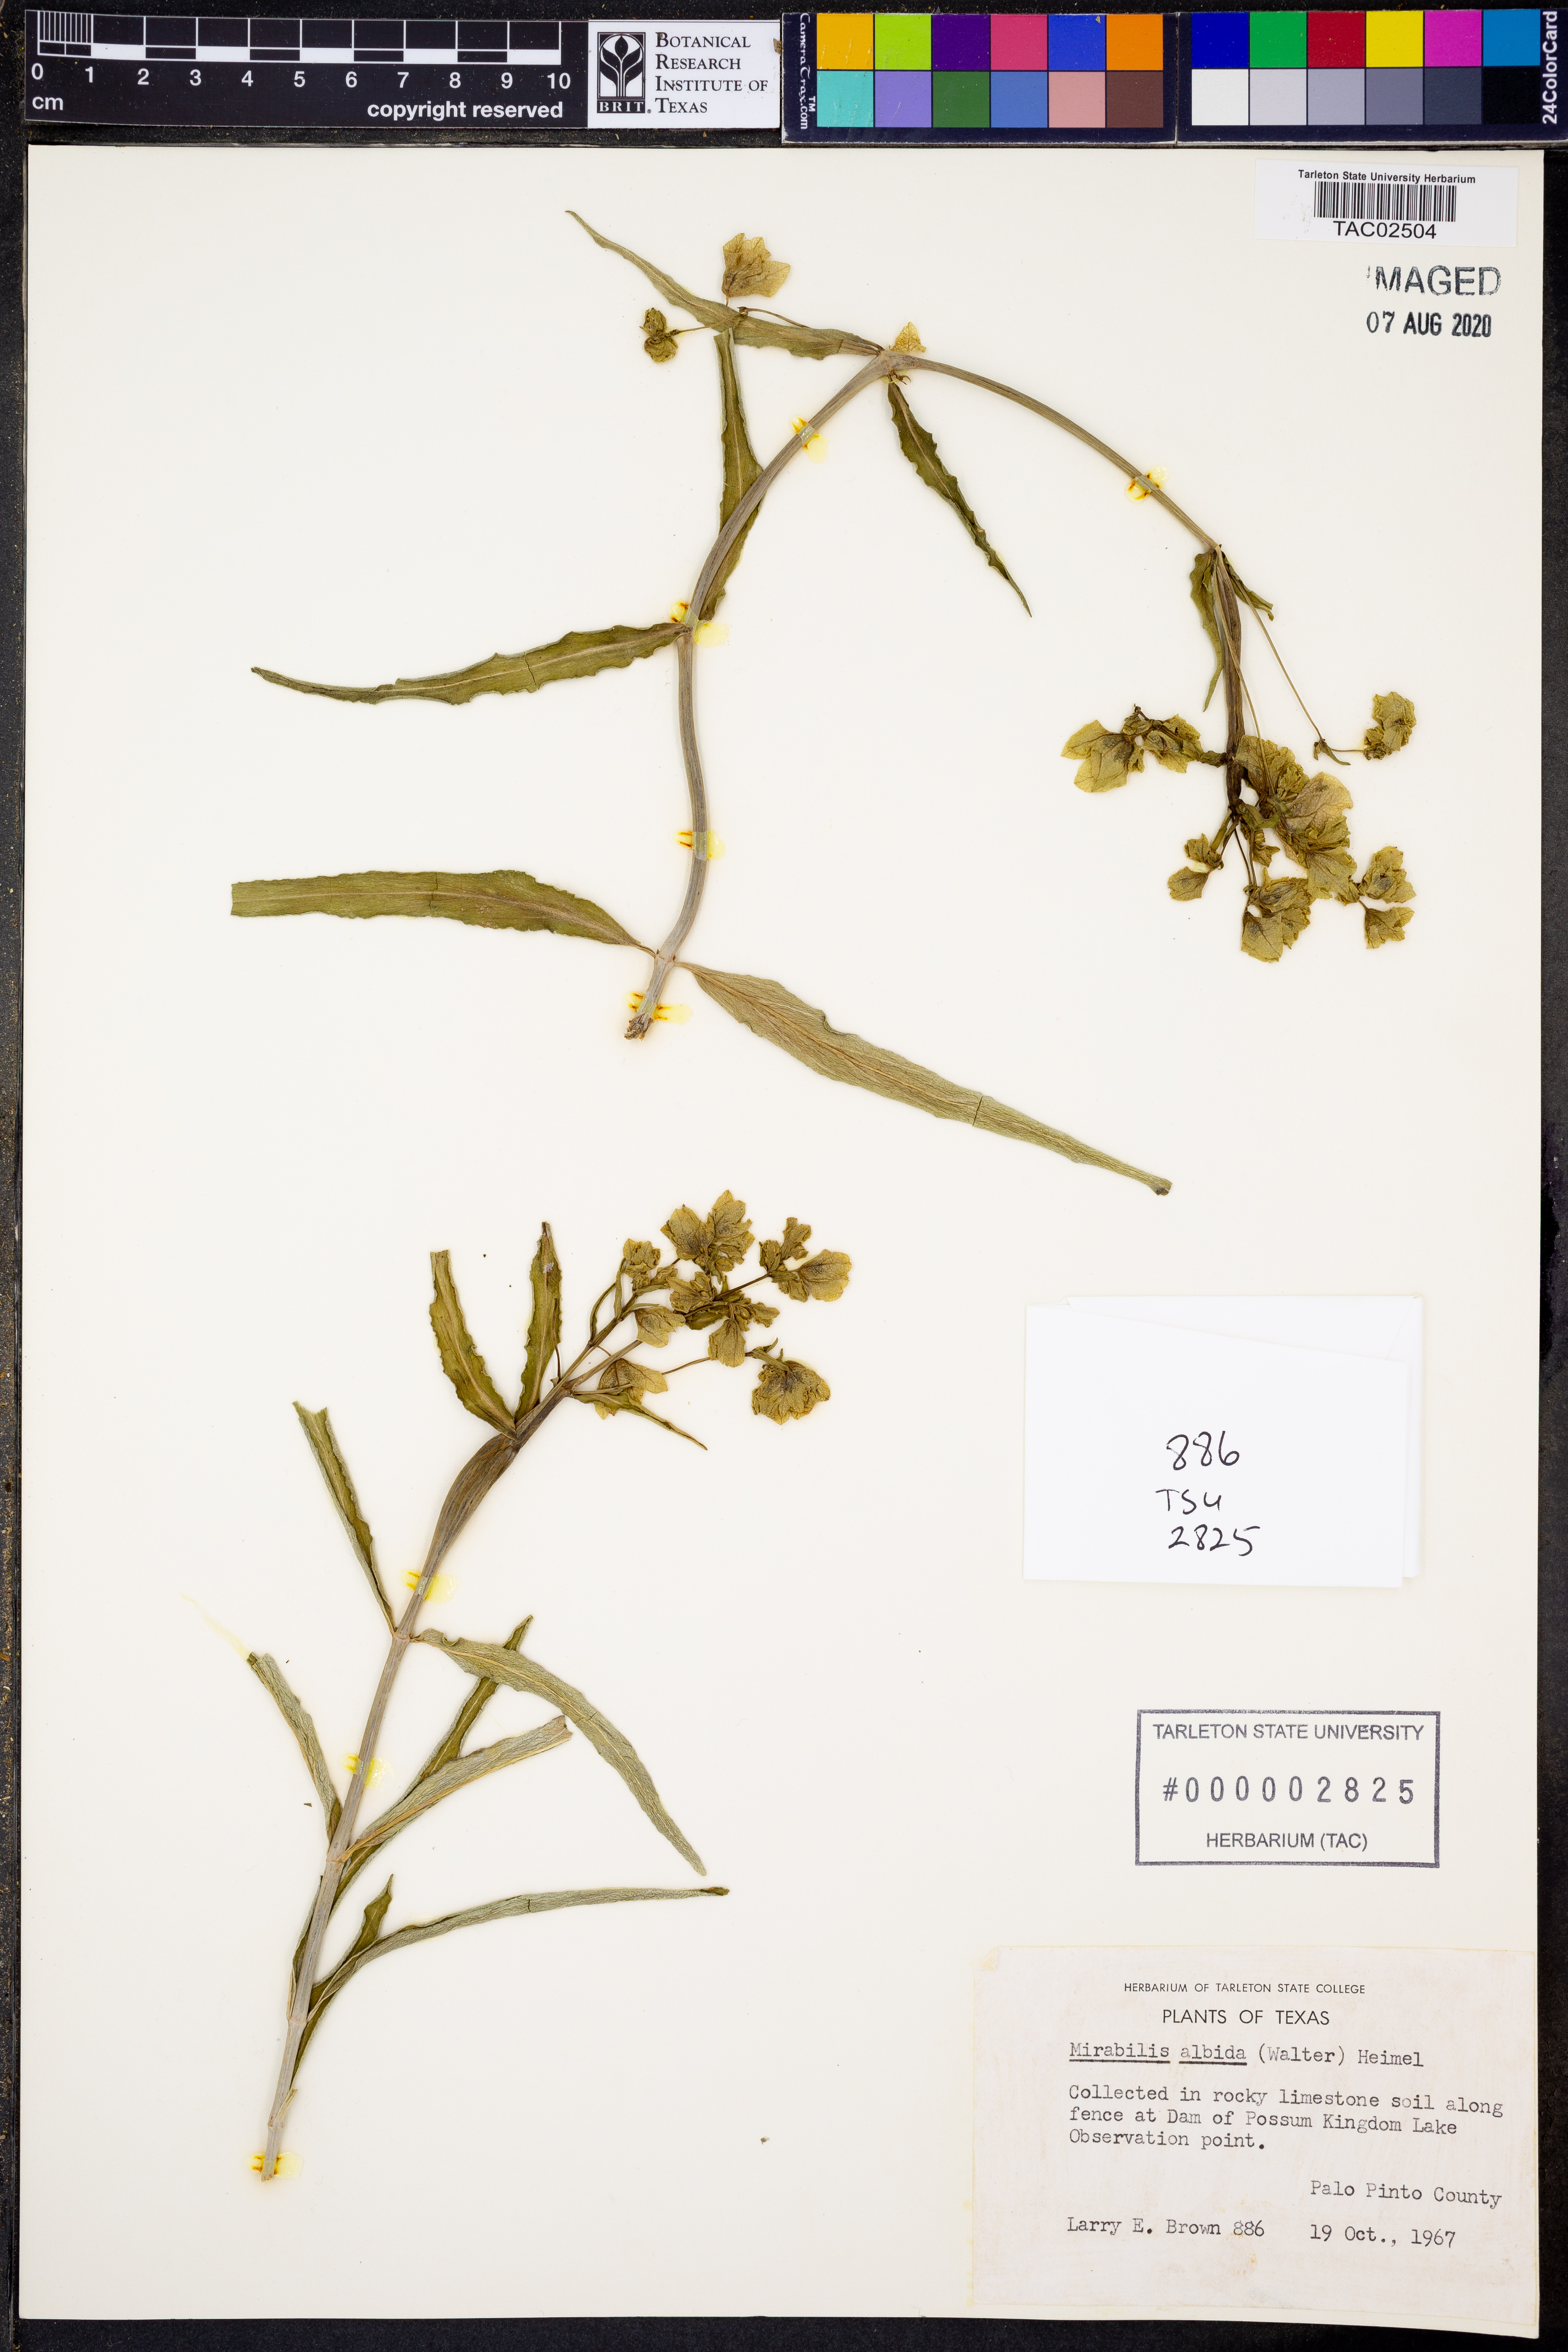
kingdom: Plantae
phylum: Tracheophyta
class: Magnoliopsida
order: Caryophyllales
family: Nyctaginaceae
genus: Mirabilis
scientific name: Mirabilis albida
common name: Hairy four-o'clock
